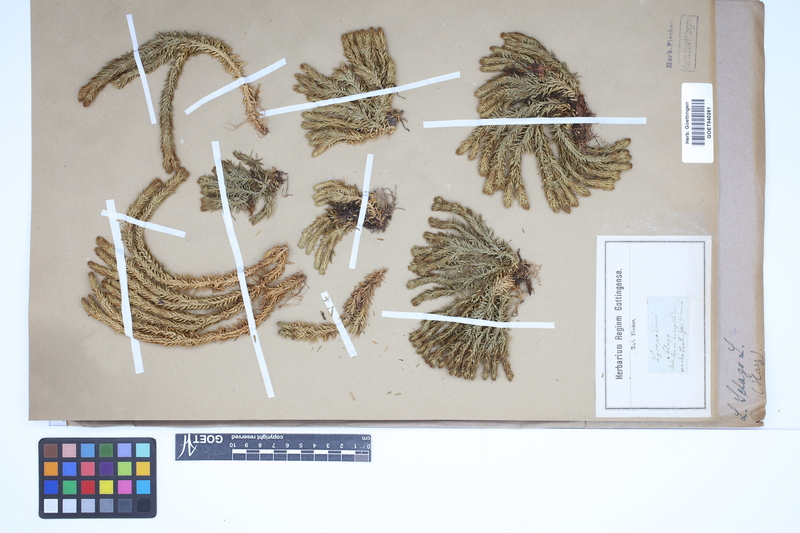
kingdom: Plantae
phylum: Tracheophyta
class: Lycopodiopsida
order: Lycopodiales
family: Lycopodiaceae
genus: Huperzia
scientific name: Huperzia selago
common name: Northern firmoss
